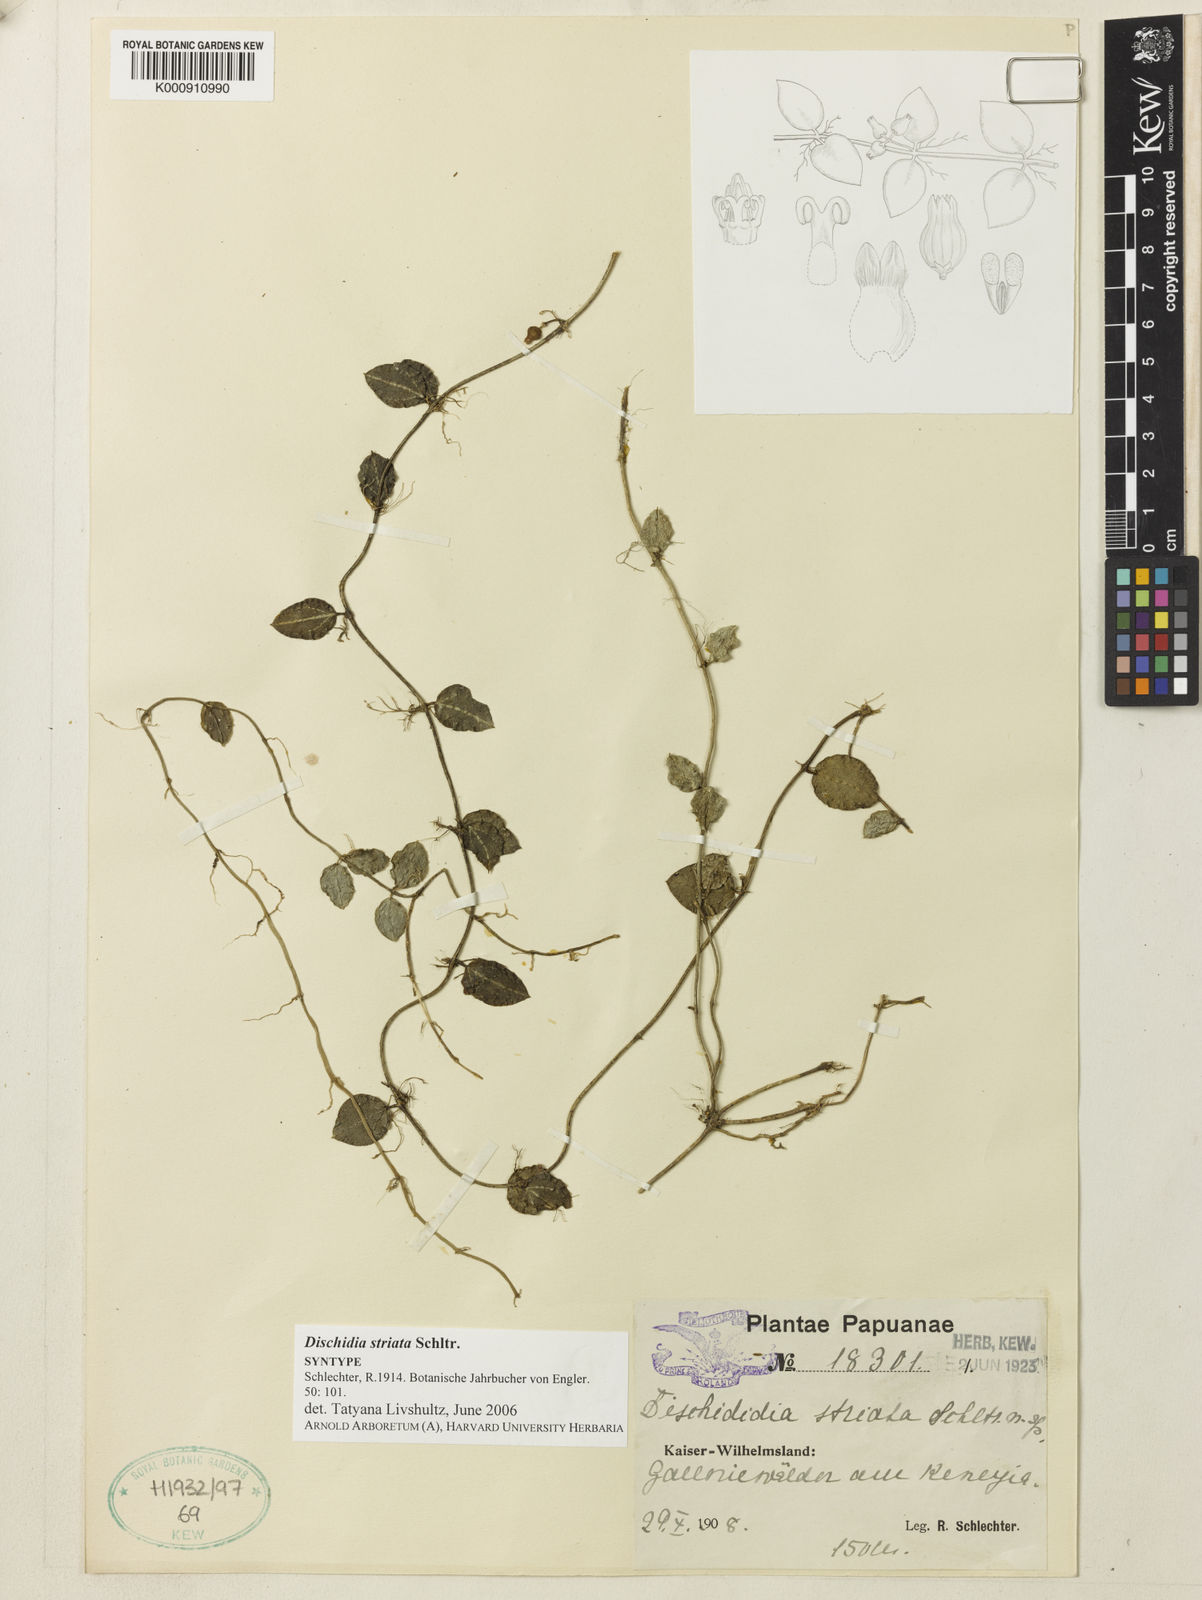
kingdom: Plantae
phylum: Tracheophyta
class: Magnoliopsida
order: Gentianales
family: Apocynaceae
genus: Dischidia
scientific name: Dischidia striata
